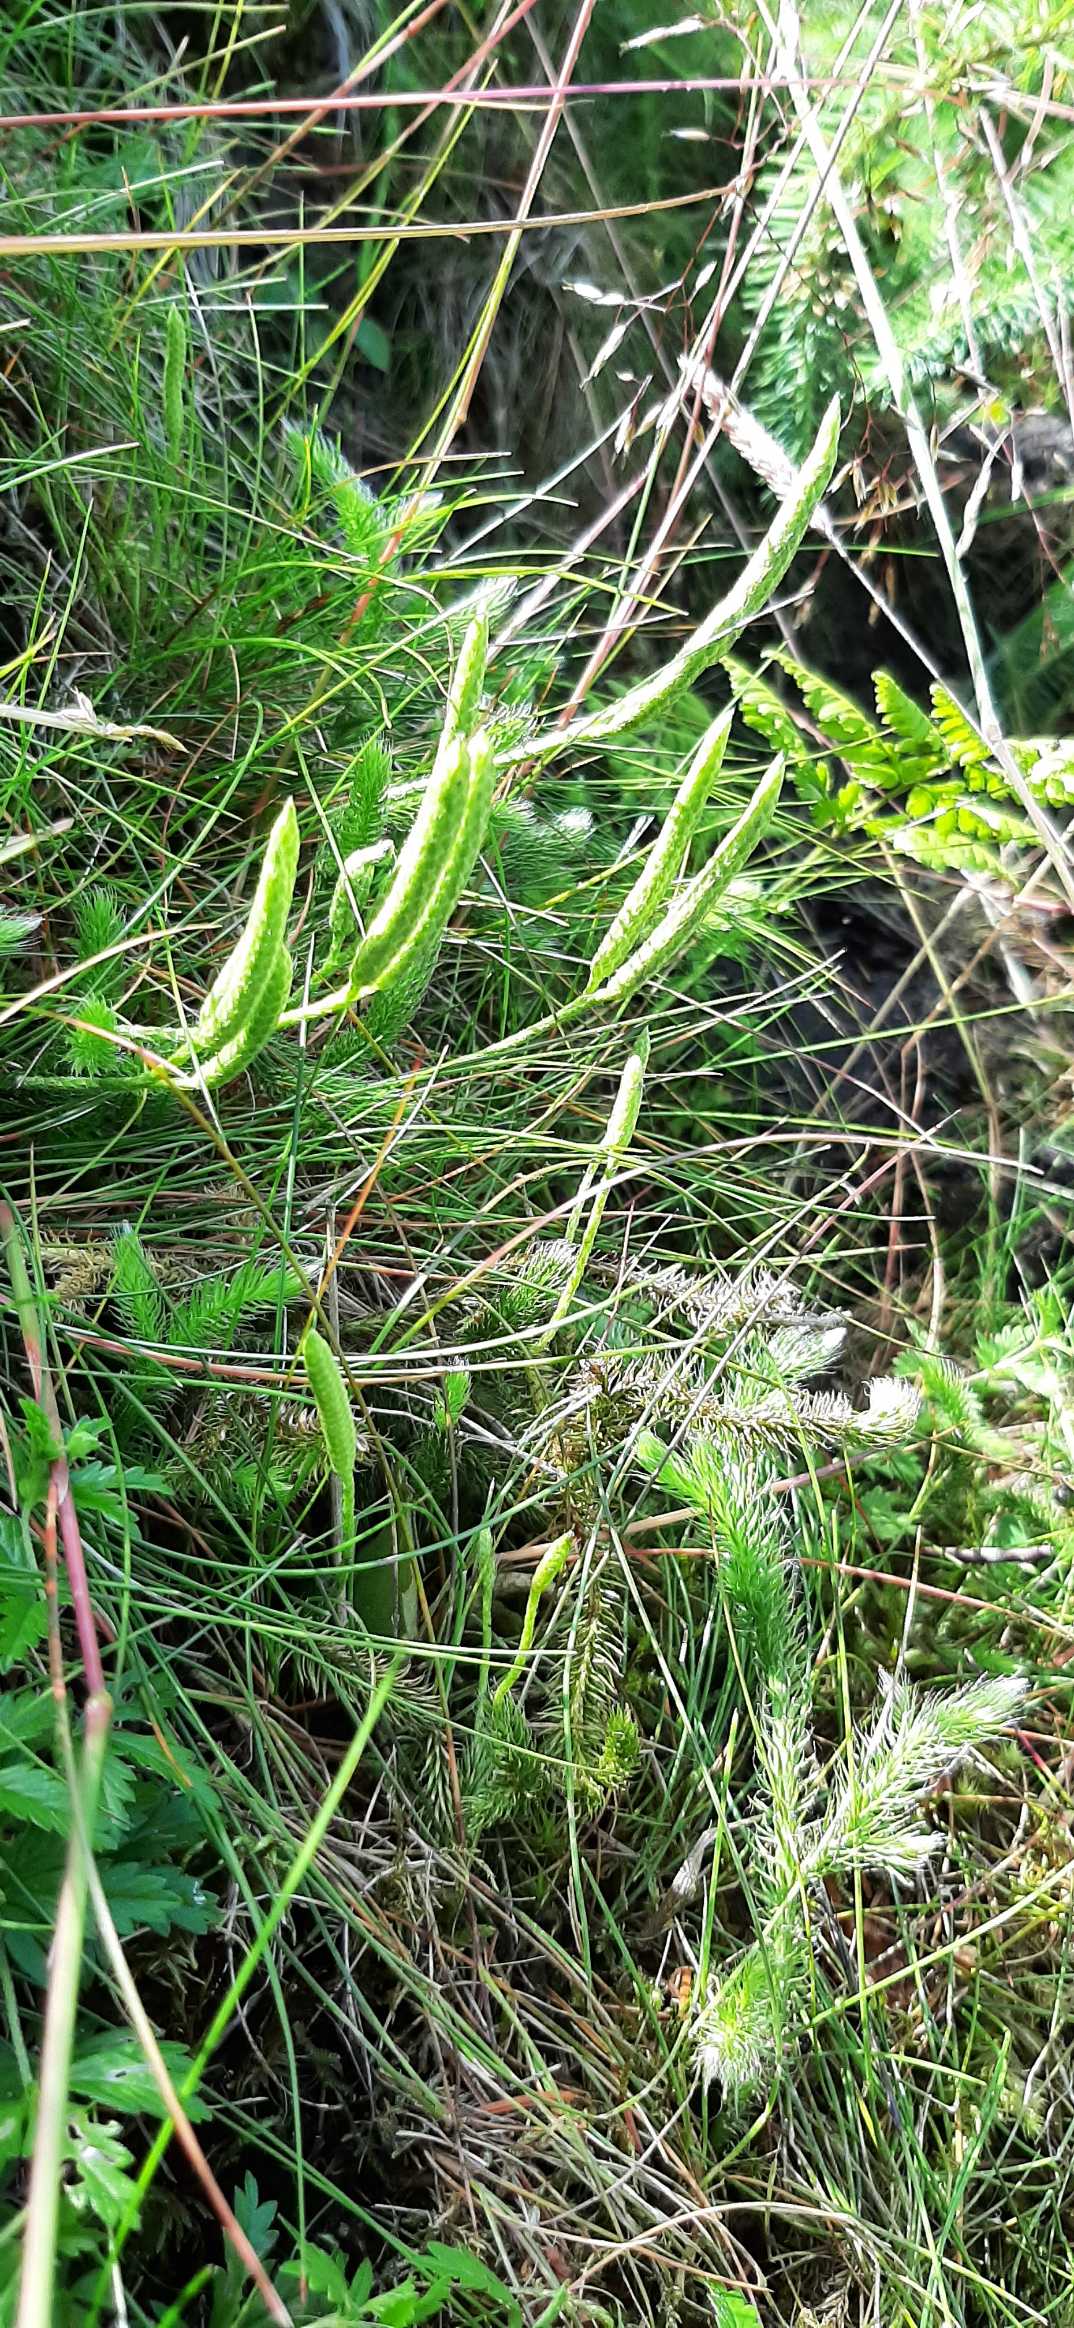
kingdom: Plantae
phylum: Tracheophyta
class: Magnoliopsida
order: Cornales
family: Cornaceae
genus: Cornus
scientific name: Cornus suecica
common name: Hønsebær
